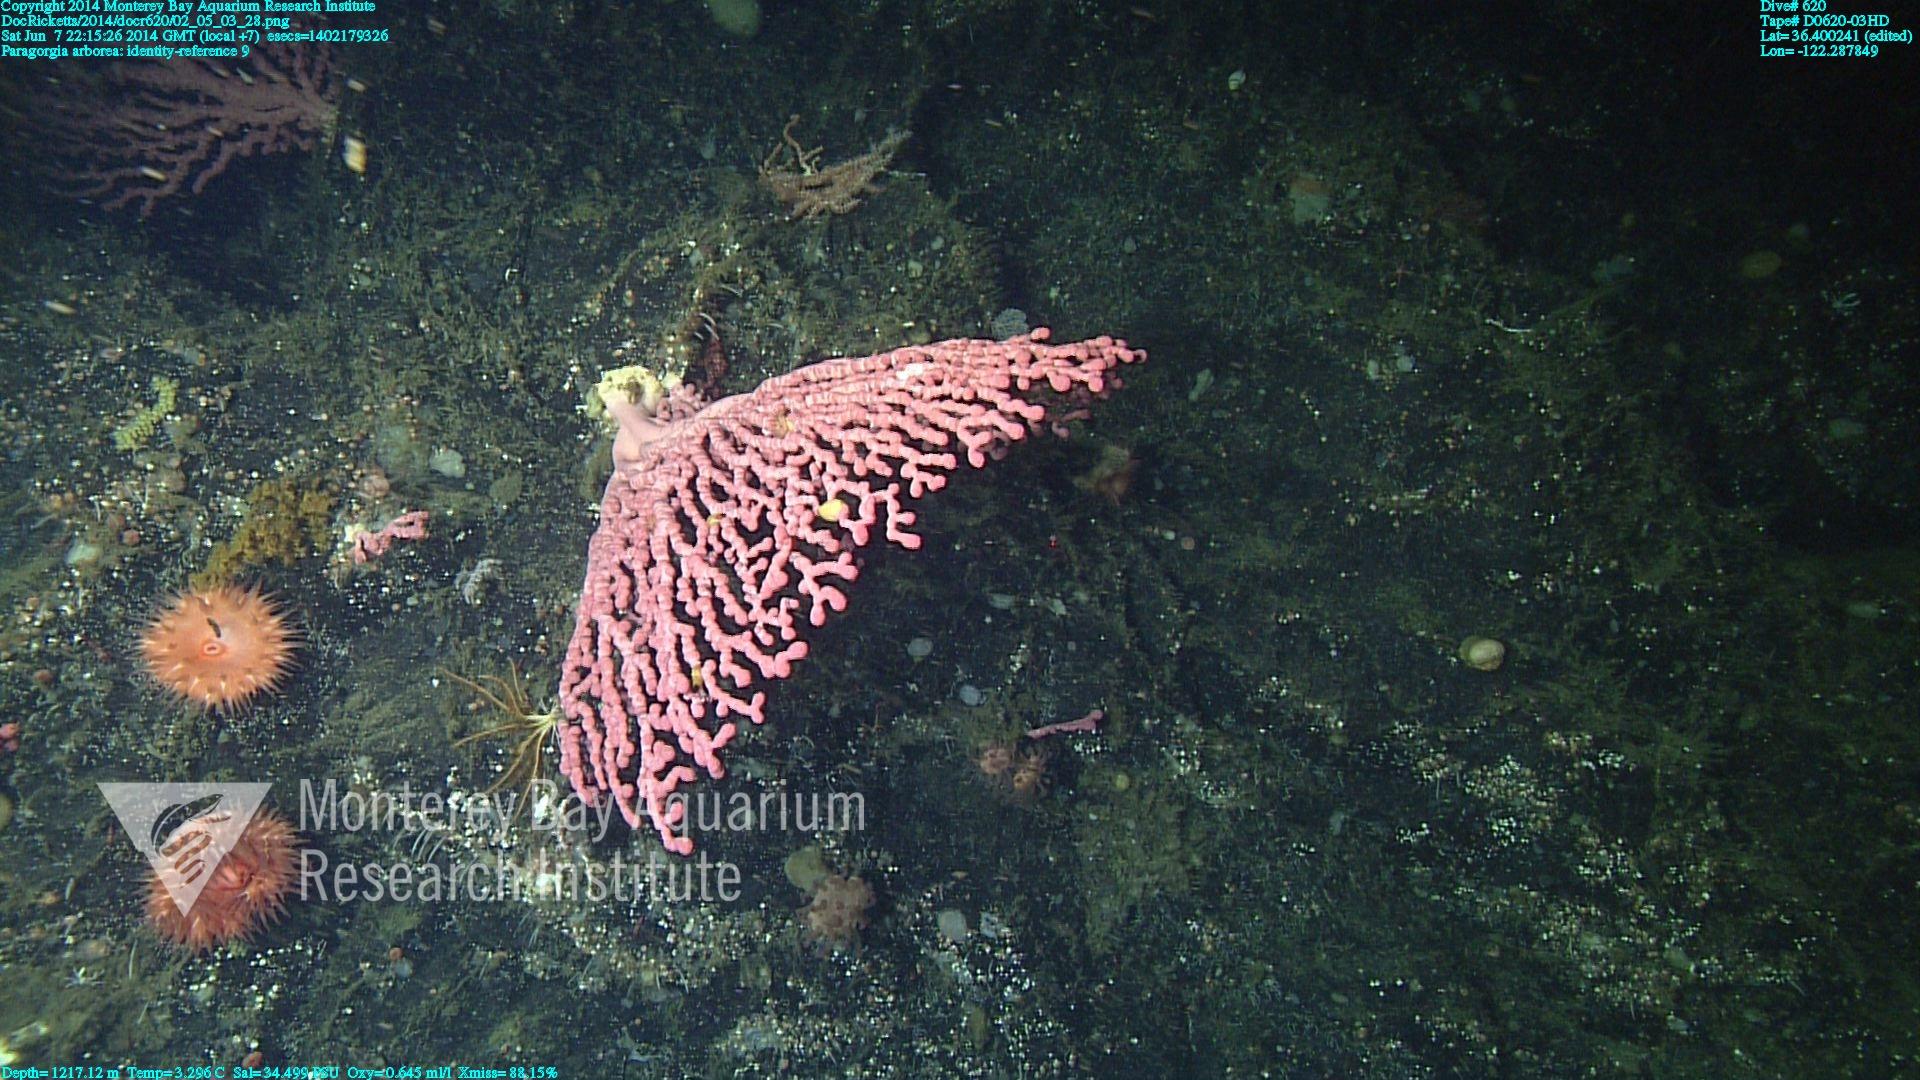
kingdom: Animalia
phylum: Cnidaria
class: Anthozoa
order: Scleralcyonacea
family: Coralliidae
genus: Paragorgia
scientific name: Paragorgia arborea
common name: Bubble gum coral
